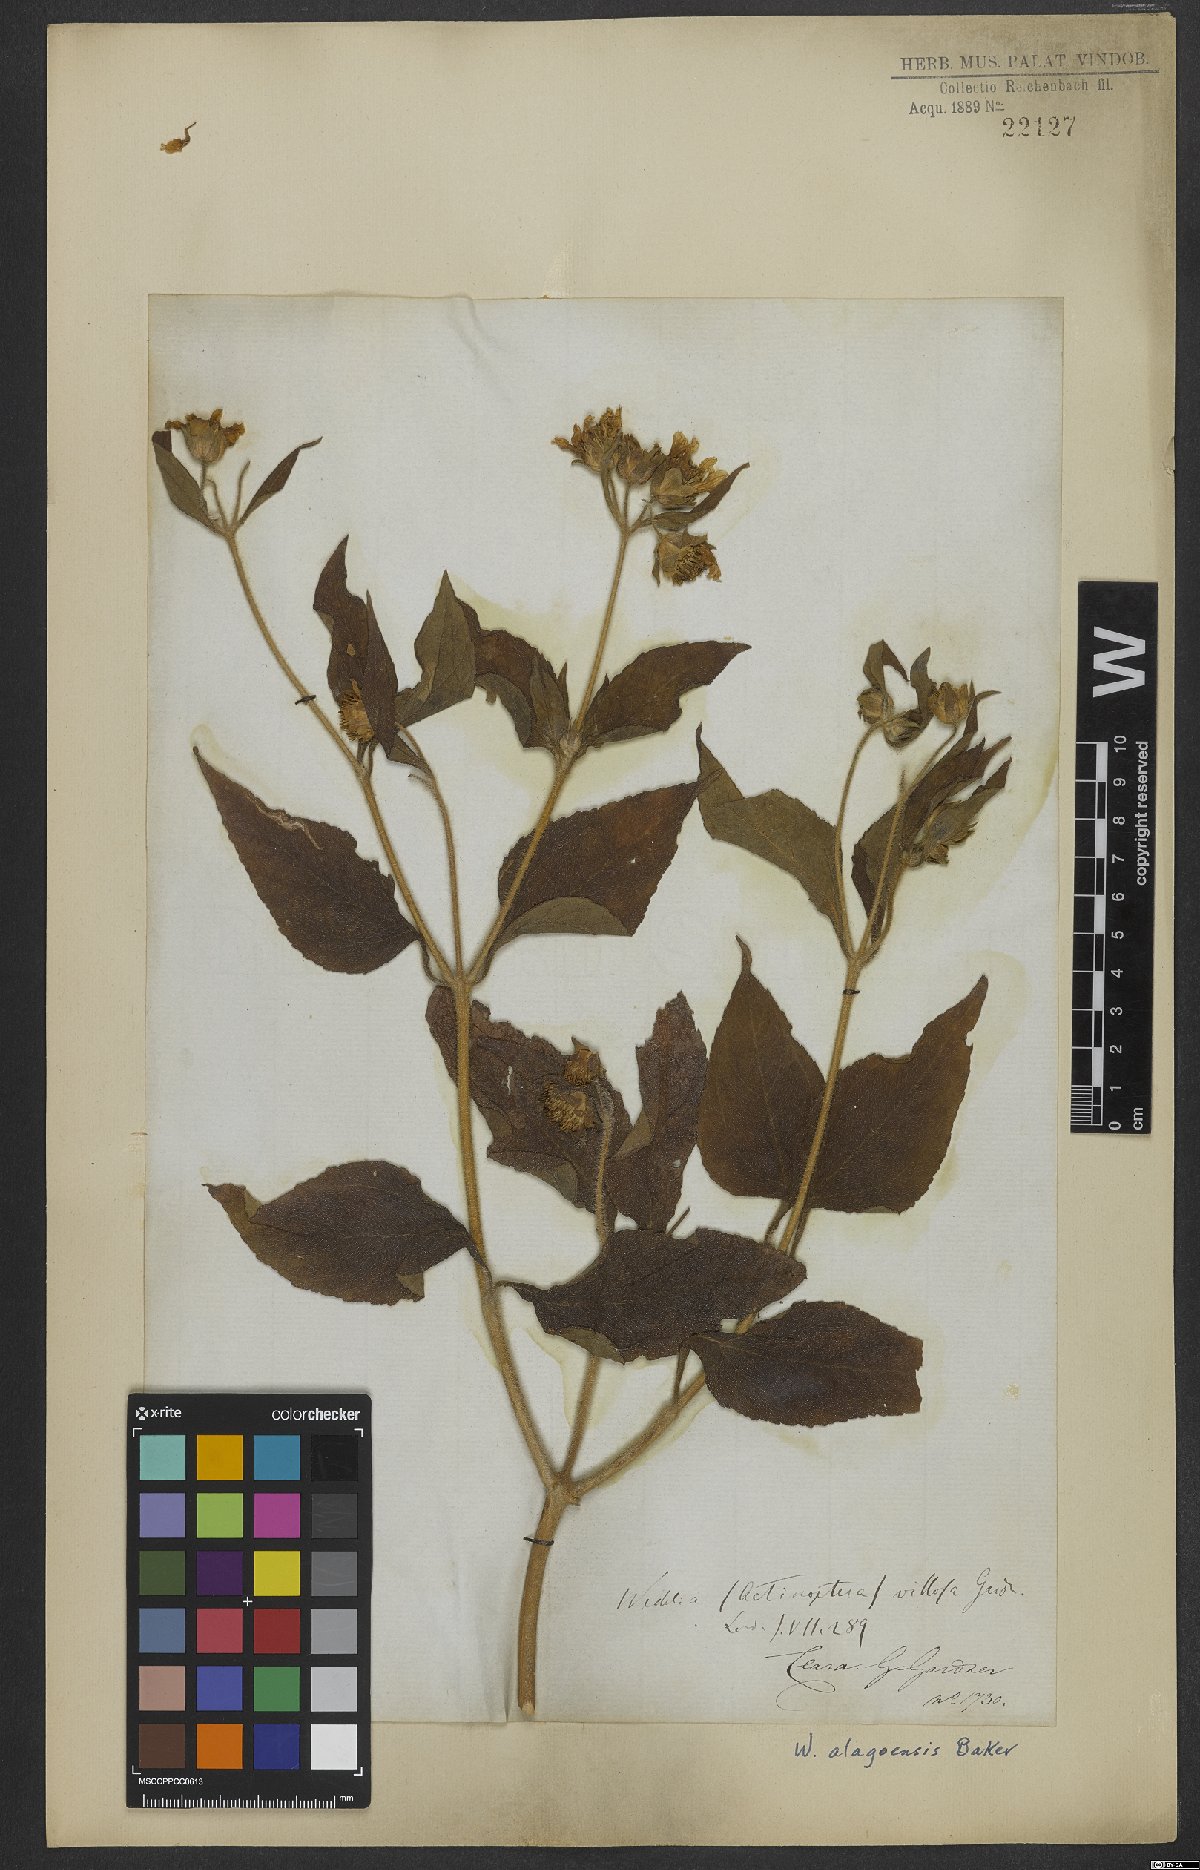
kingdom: Plantae
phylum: Tracheophyta
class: Magnoliopsida
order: Asterales
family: Asteraceae
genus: Wedelia
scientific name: Wedelia alagoensis
